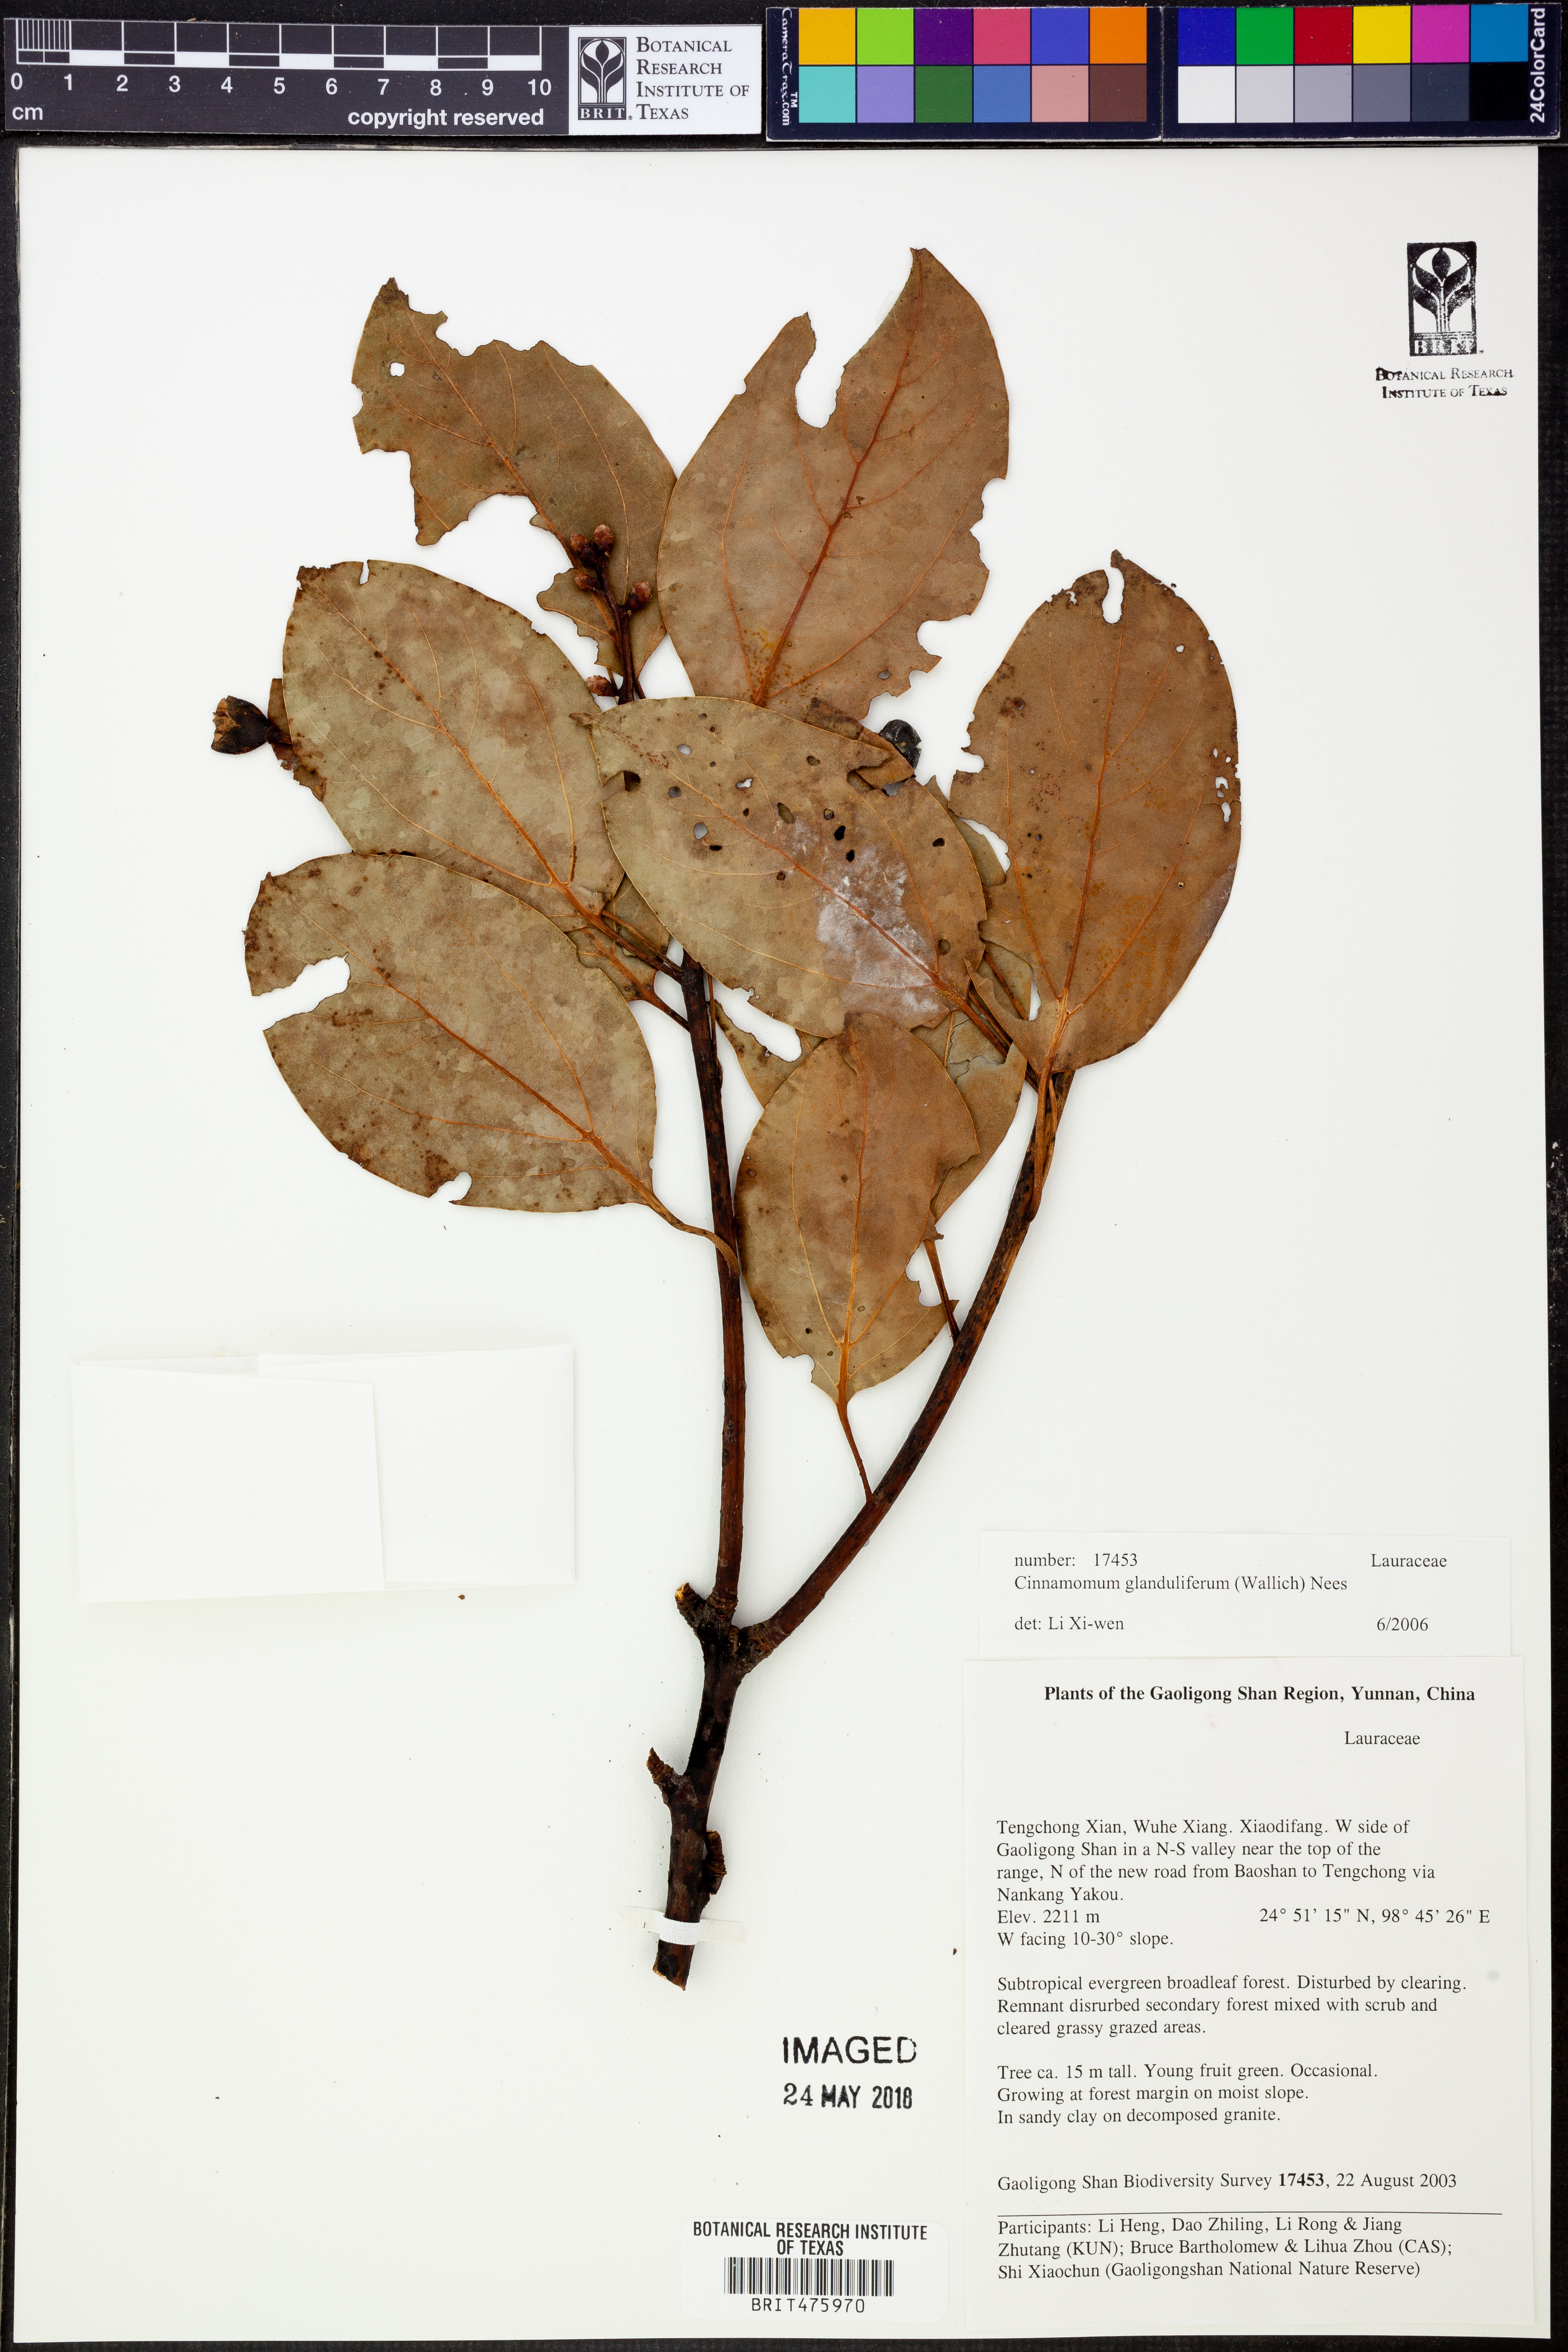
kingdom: Plantae
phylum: Tracheophyta
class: Magnoliopsida
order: Laurales
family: Lauraceae
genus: Cinnamomum
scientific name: Cinnamomum glanduliferum
